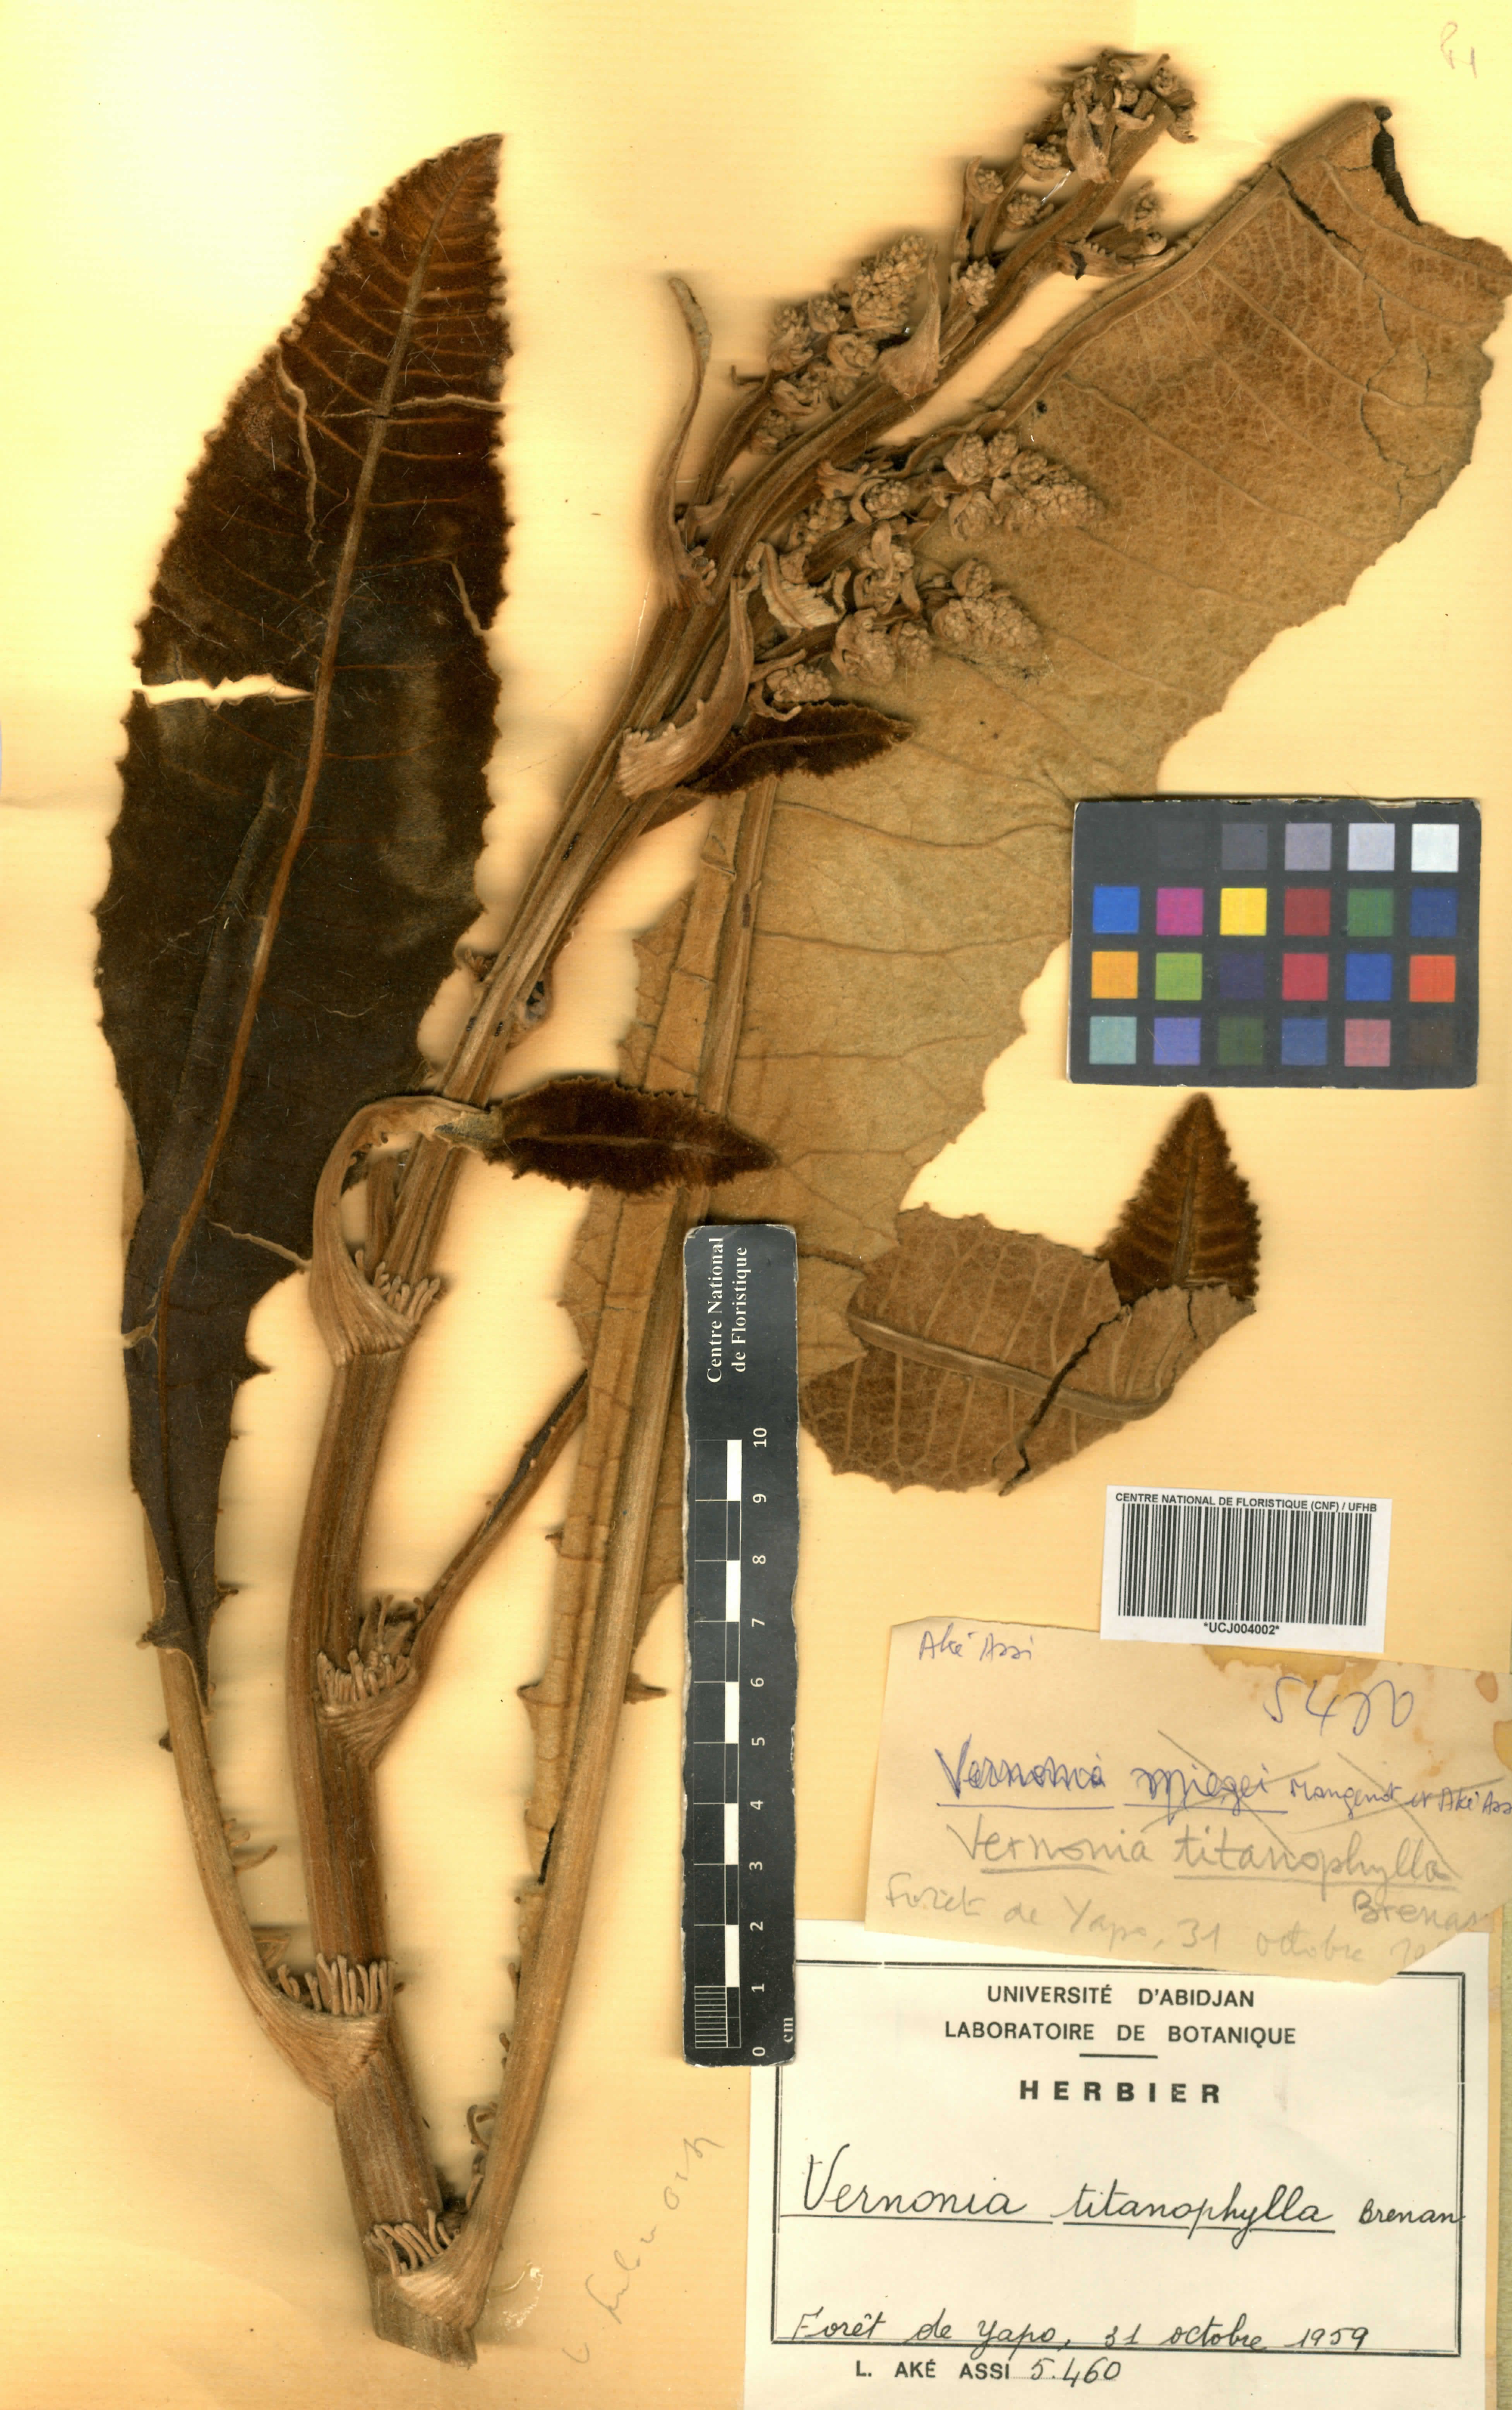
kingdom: Plantae
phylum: Tracheophyta
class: Magnoliopsida
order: Asterales
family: Asteraceae
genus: Brenandendron
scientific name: Brenandendron titanophyllum
